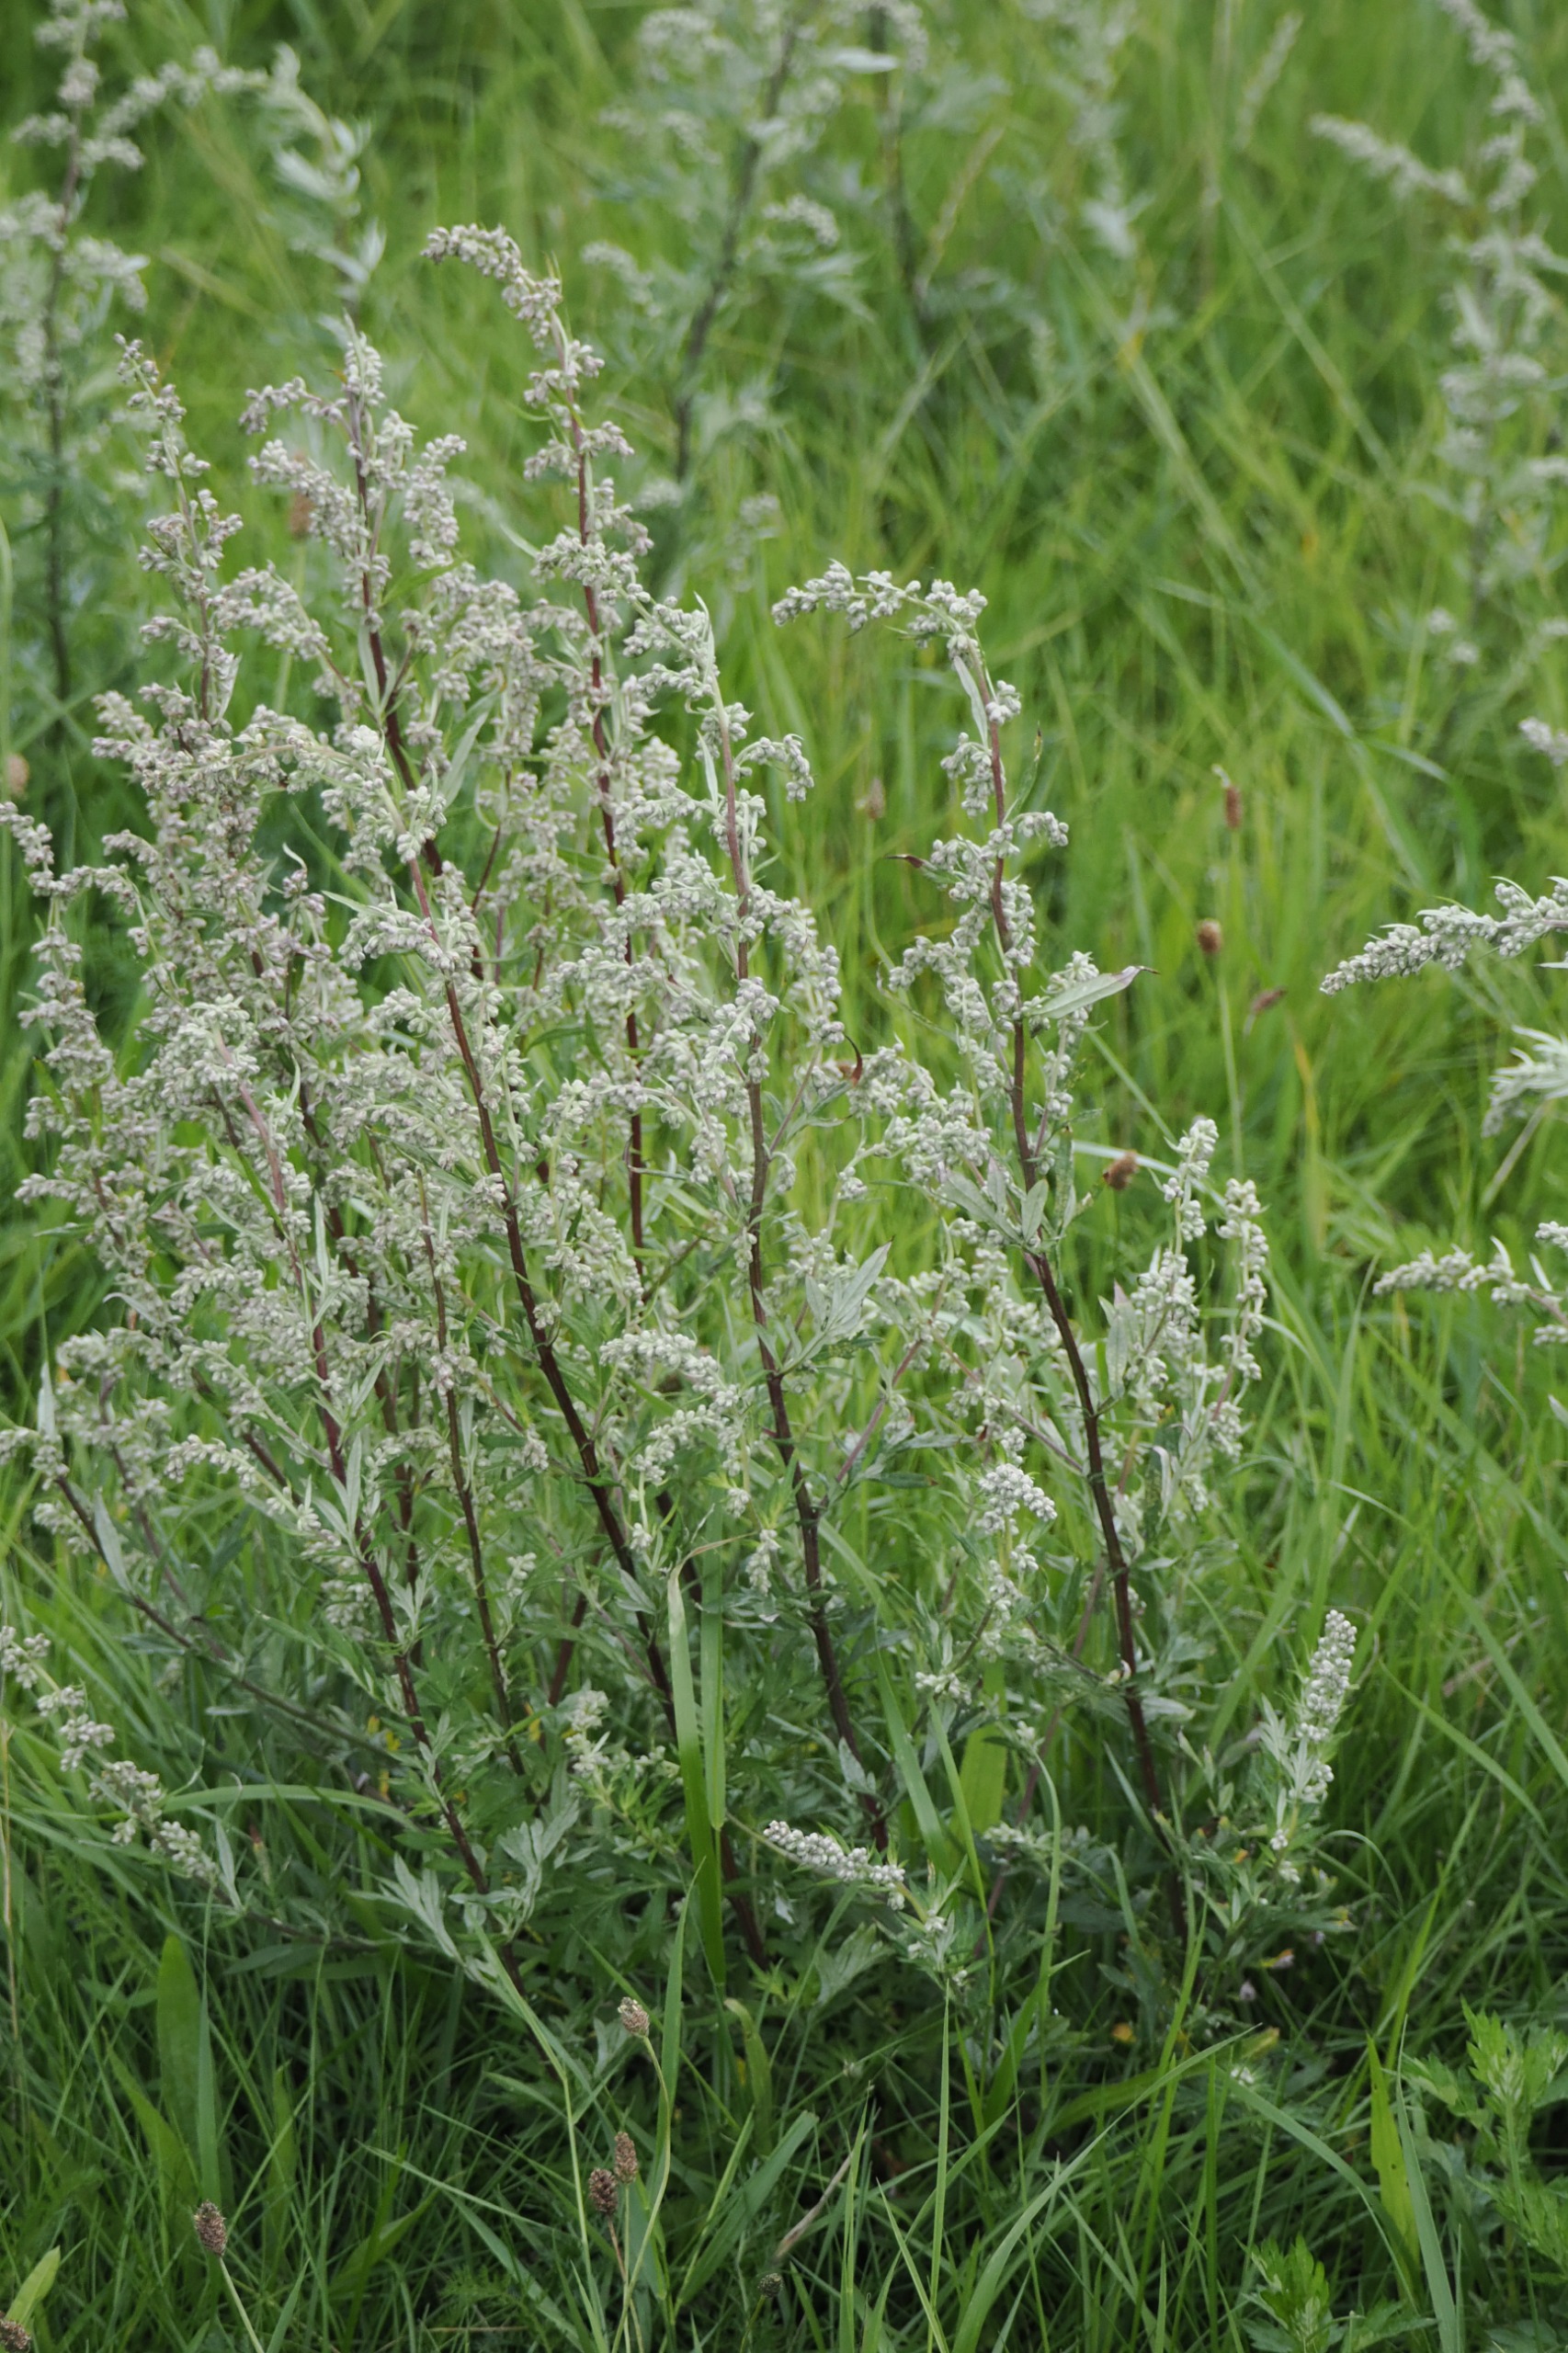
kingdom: Plantae
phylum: Tracheophyta
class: Magnoliopsida
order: Asterales
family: Asteraceae
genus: Artemisia
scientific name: Artemisia vulgaris
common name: Grå-bynke
